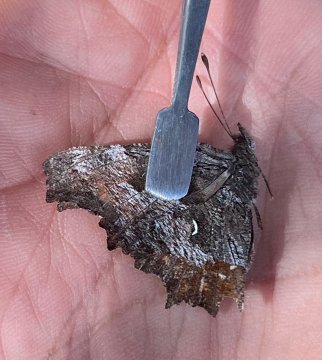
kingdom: Animalia
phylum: Arthropoda
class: Insecta
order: Lepidoptera
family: Nymphalidae
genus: Polygonia
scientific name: Polygonia gracilis
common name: Hoary Comma
